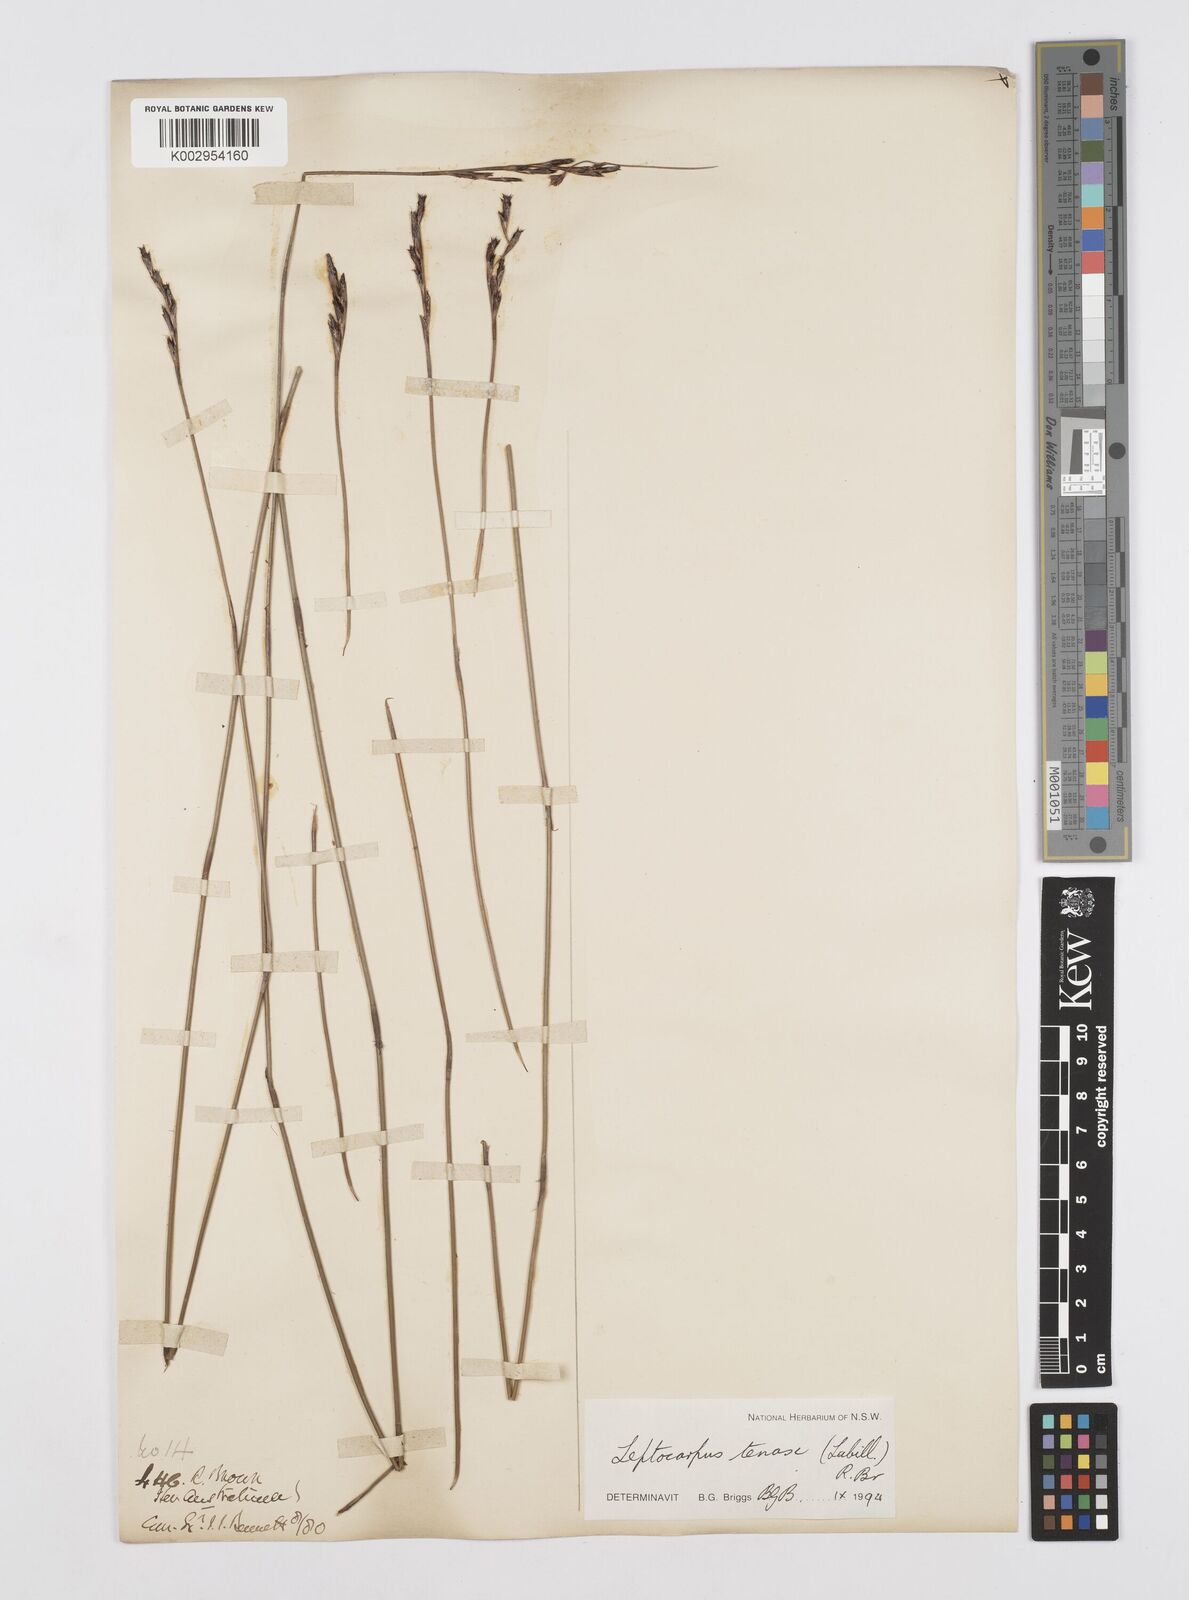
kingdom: Plantae
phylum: Tracheophyta
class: Liliopsida
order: Poales
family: Restionaceae
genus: Leptocarpus
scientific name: Leptocarpus tenax
